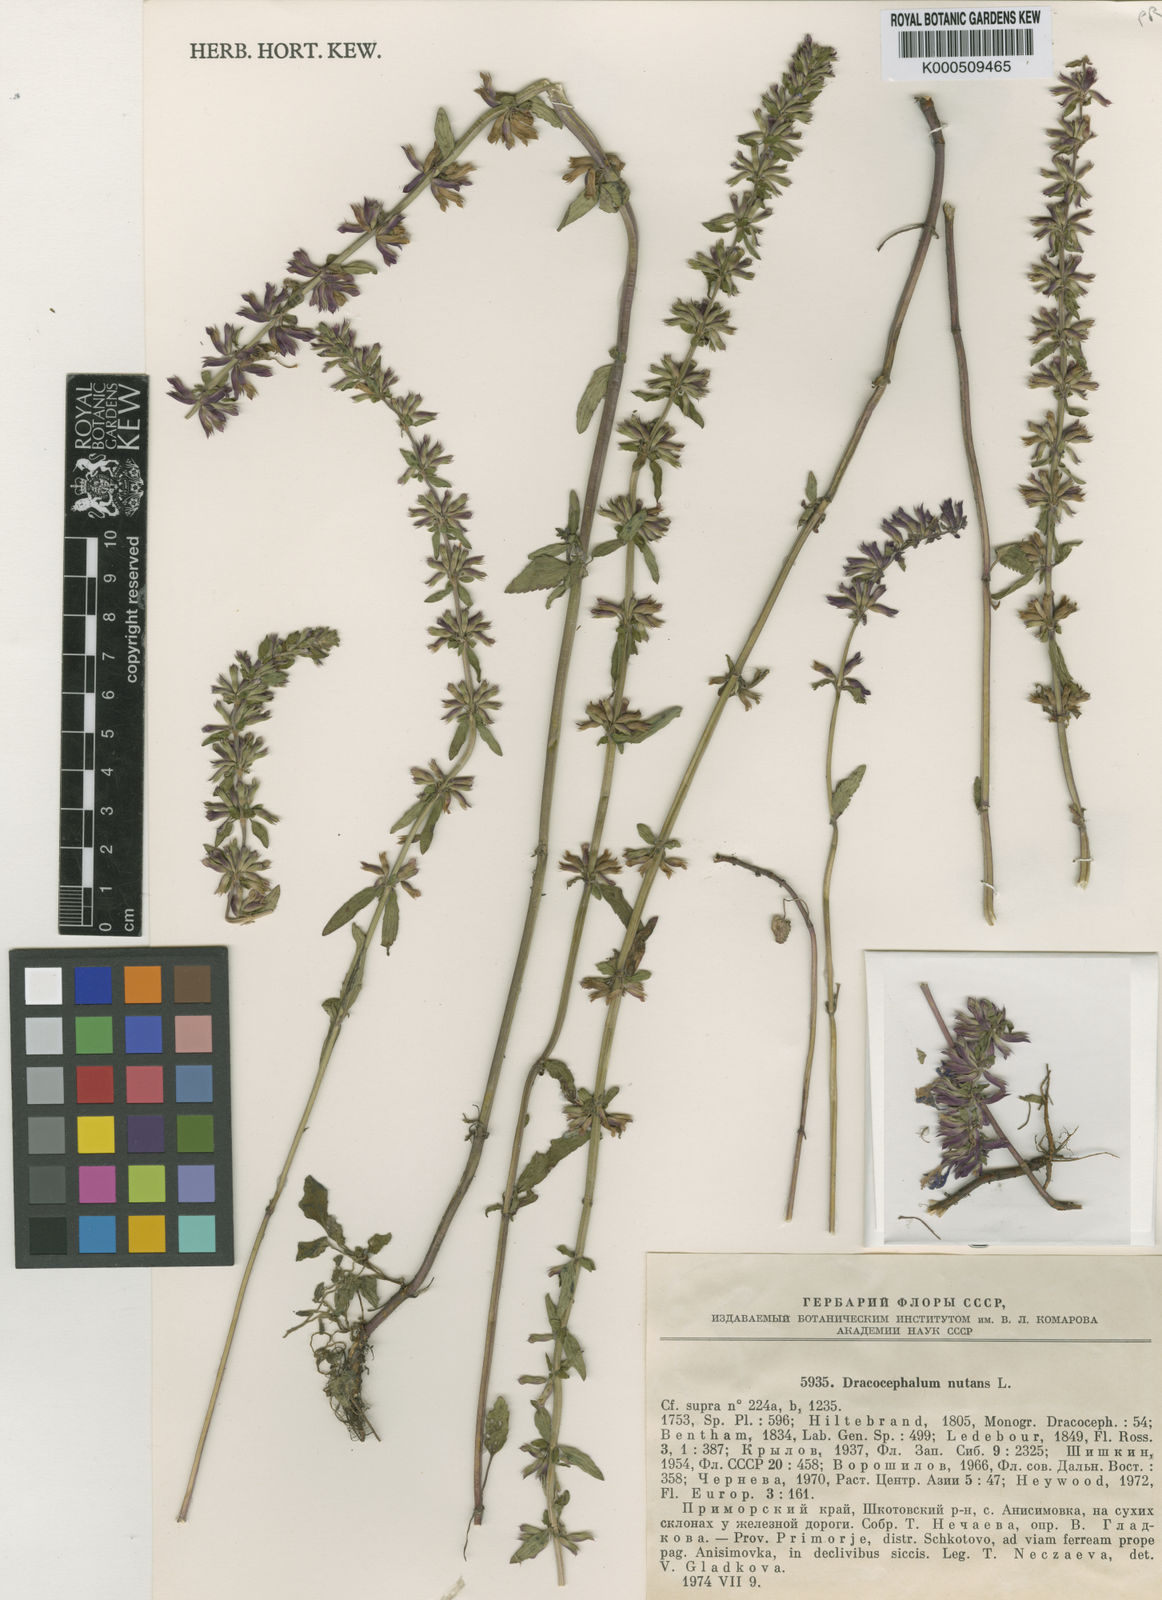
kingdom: Plantae
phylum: Tracheophyta
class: Magnoliopsida
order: Lamiales
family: Lamiaceae
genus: Dracocephalum
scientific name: Dracocephalum nutans
